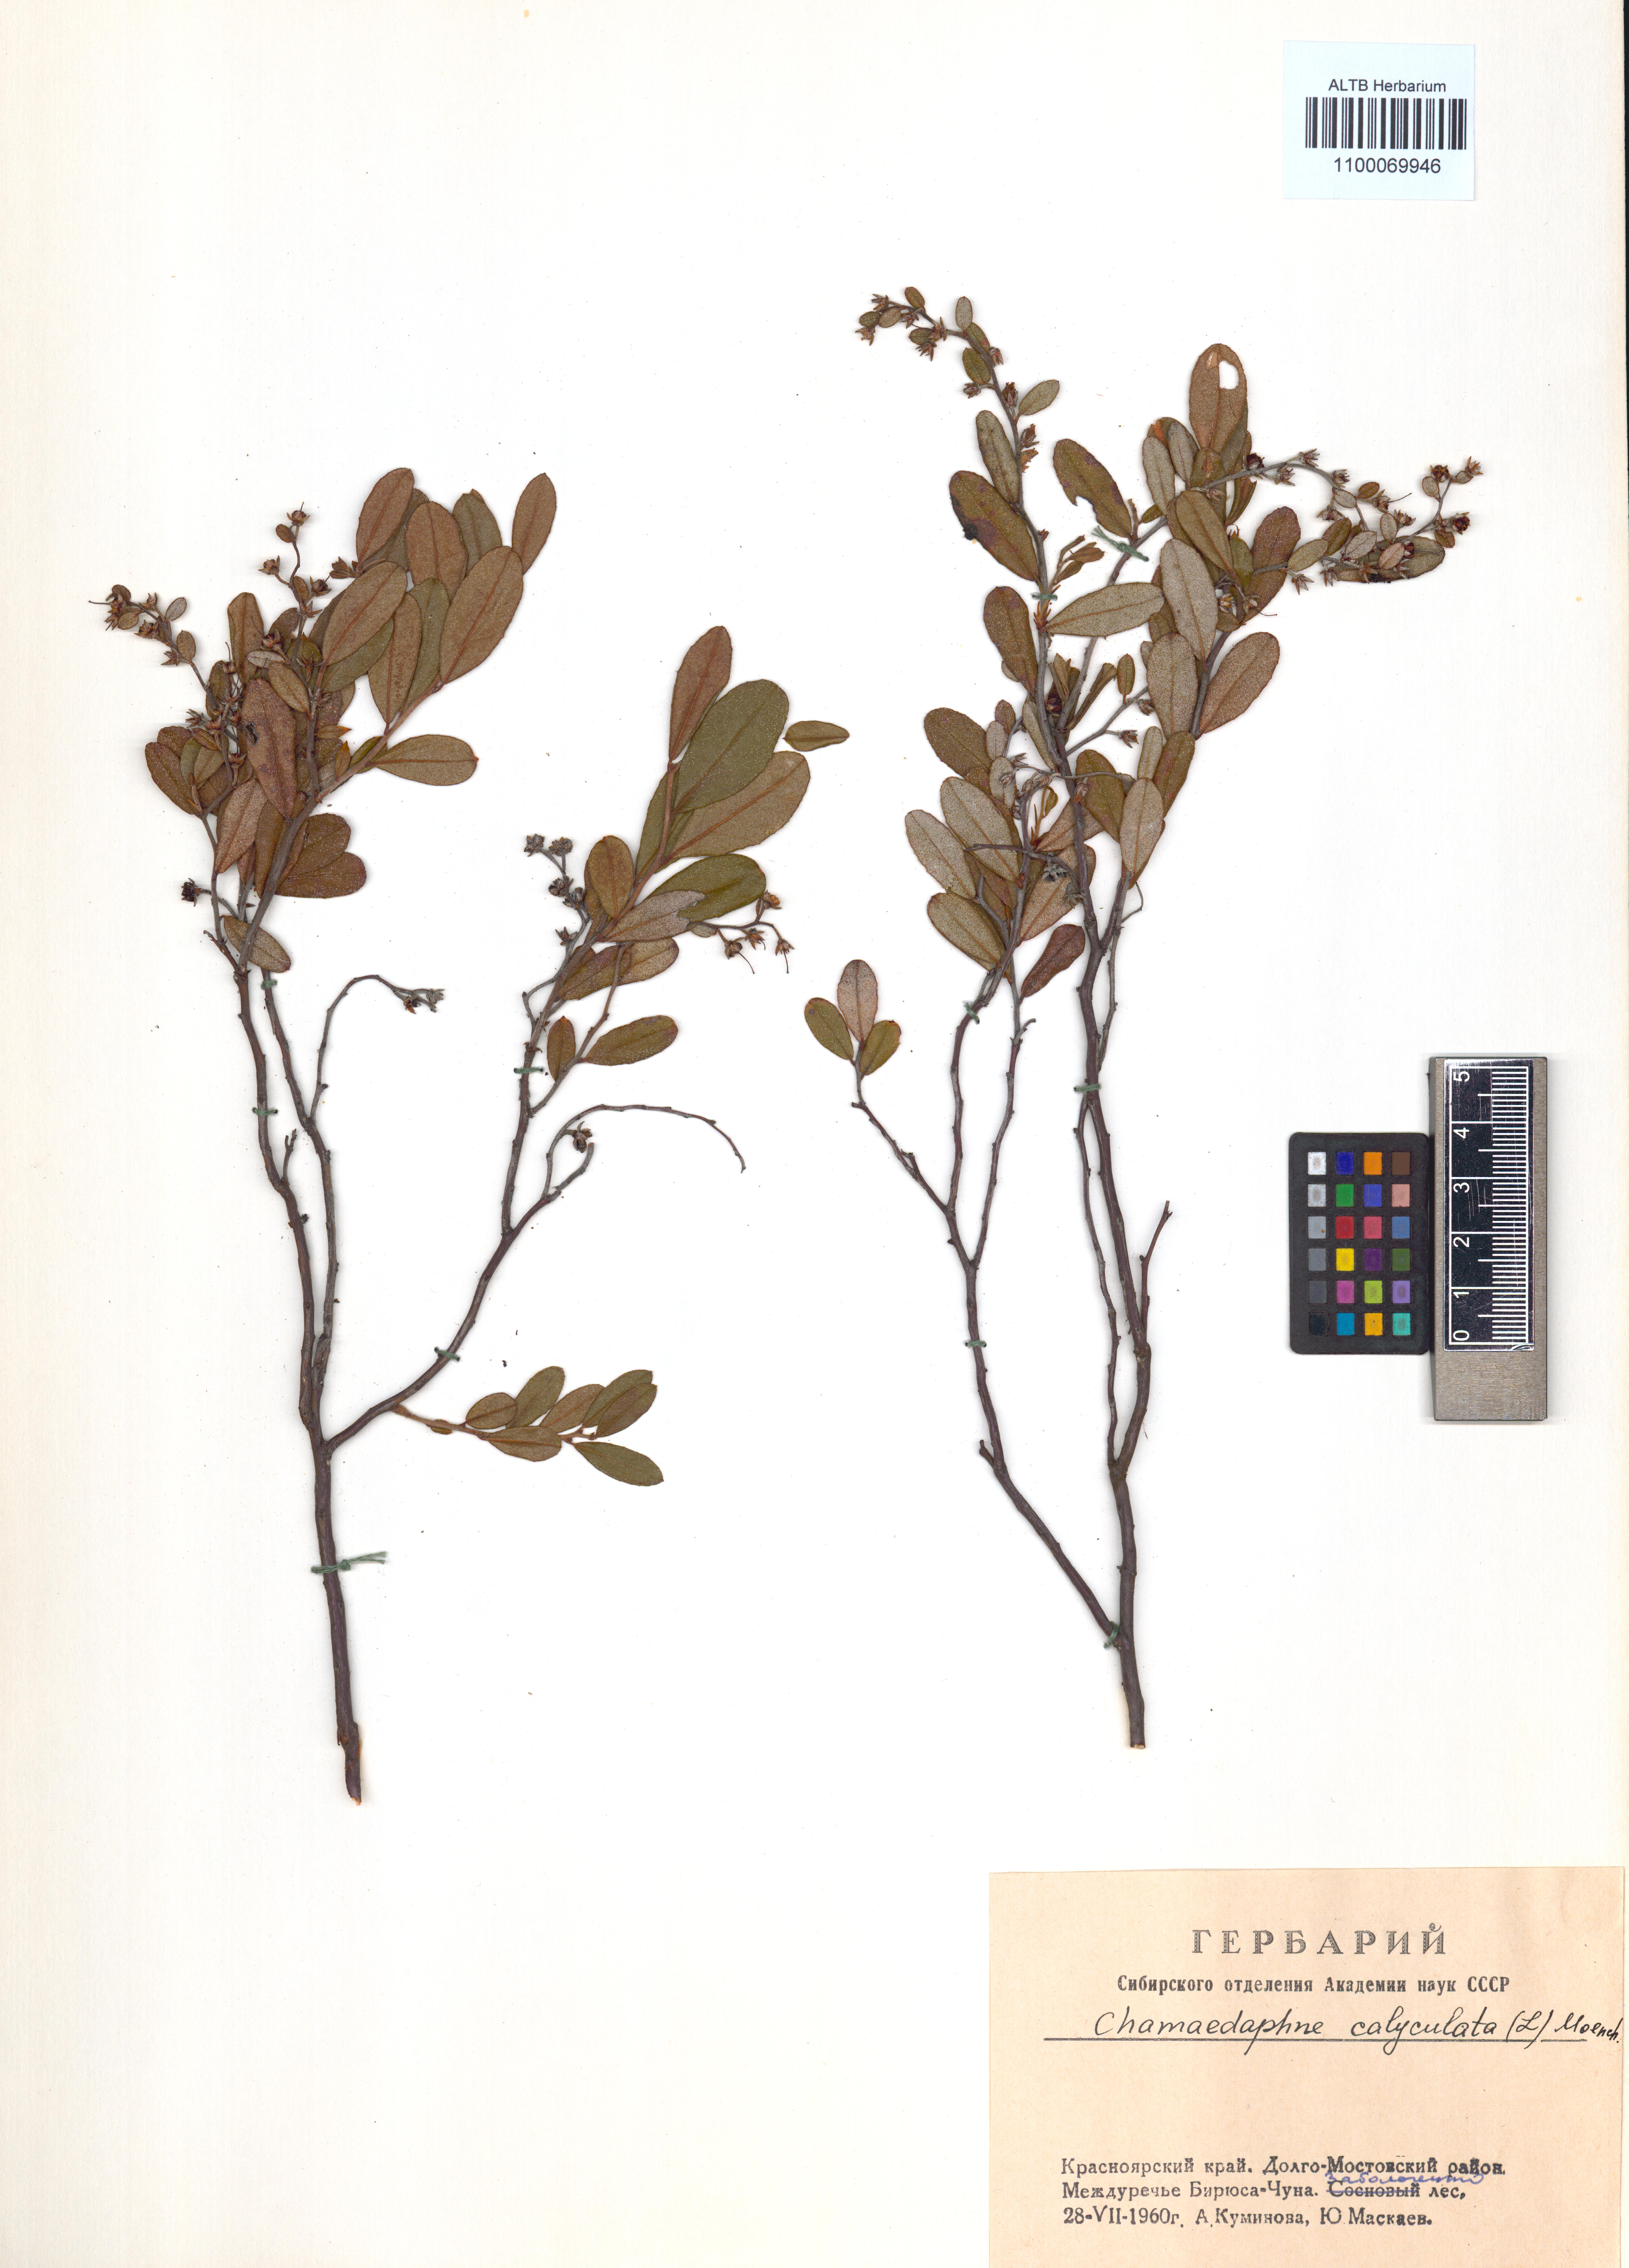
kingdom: Plantae
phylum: Tracheophyta
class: Magnoliopsida
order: Ericales
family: Ericaceae
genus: Chamaedaphne
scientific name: Chamaedaphne calyculata
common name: Leatherleaf
